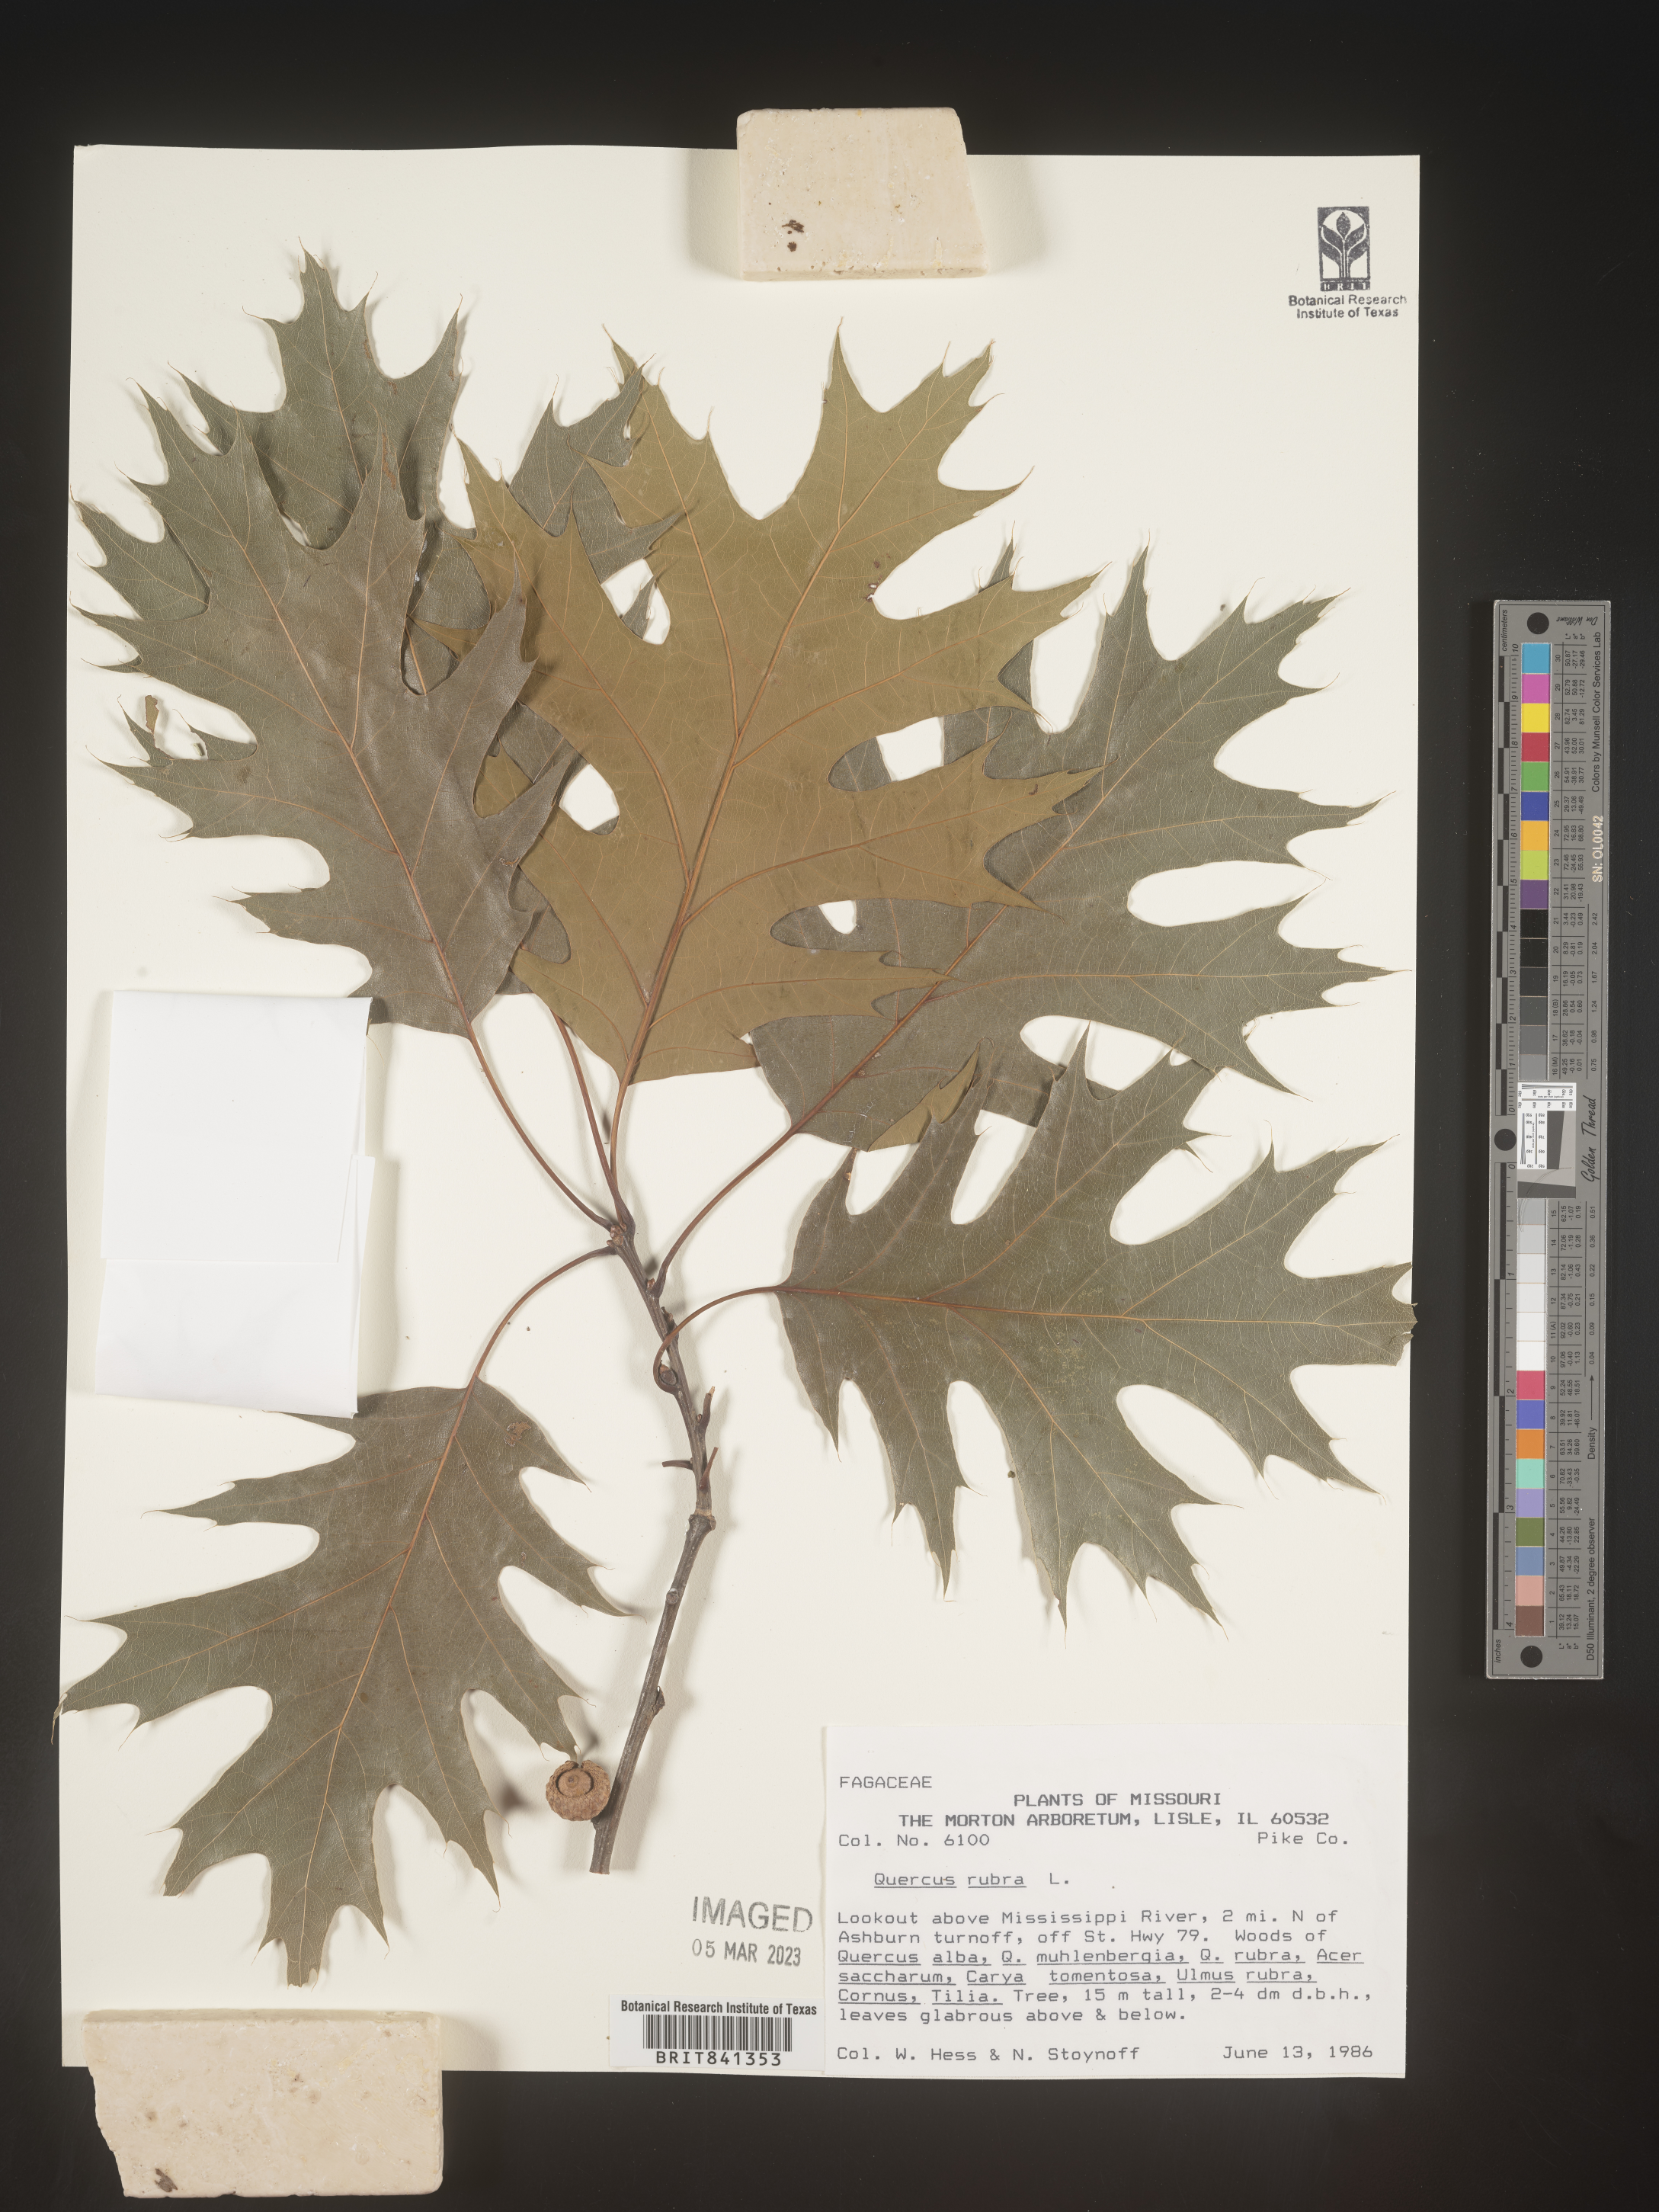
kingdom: Plantae
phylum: Tracheophyta
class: Magnoliopsida
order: Fagales
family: Fagaceae
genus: Quercus
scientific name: Quercus rubra
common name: Red oak
